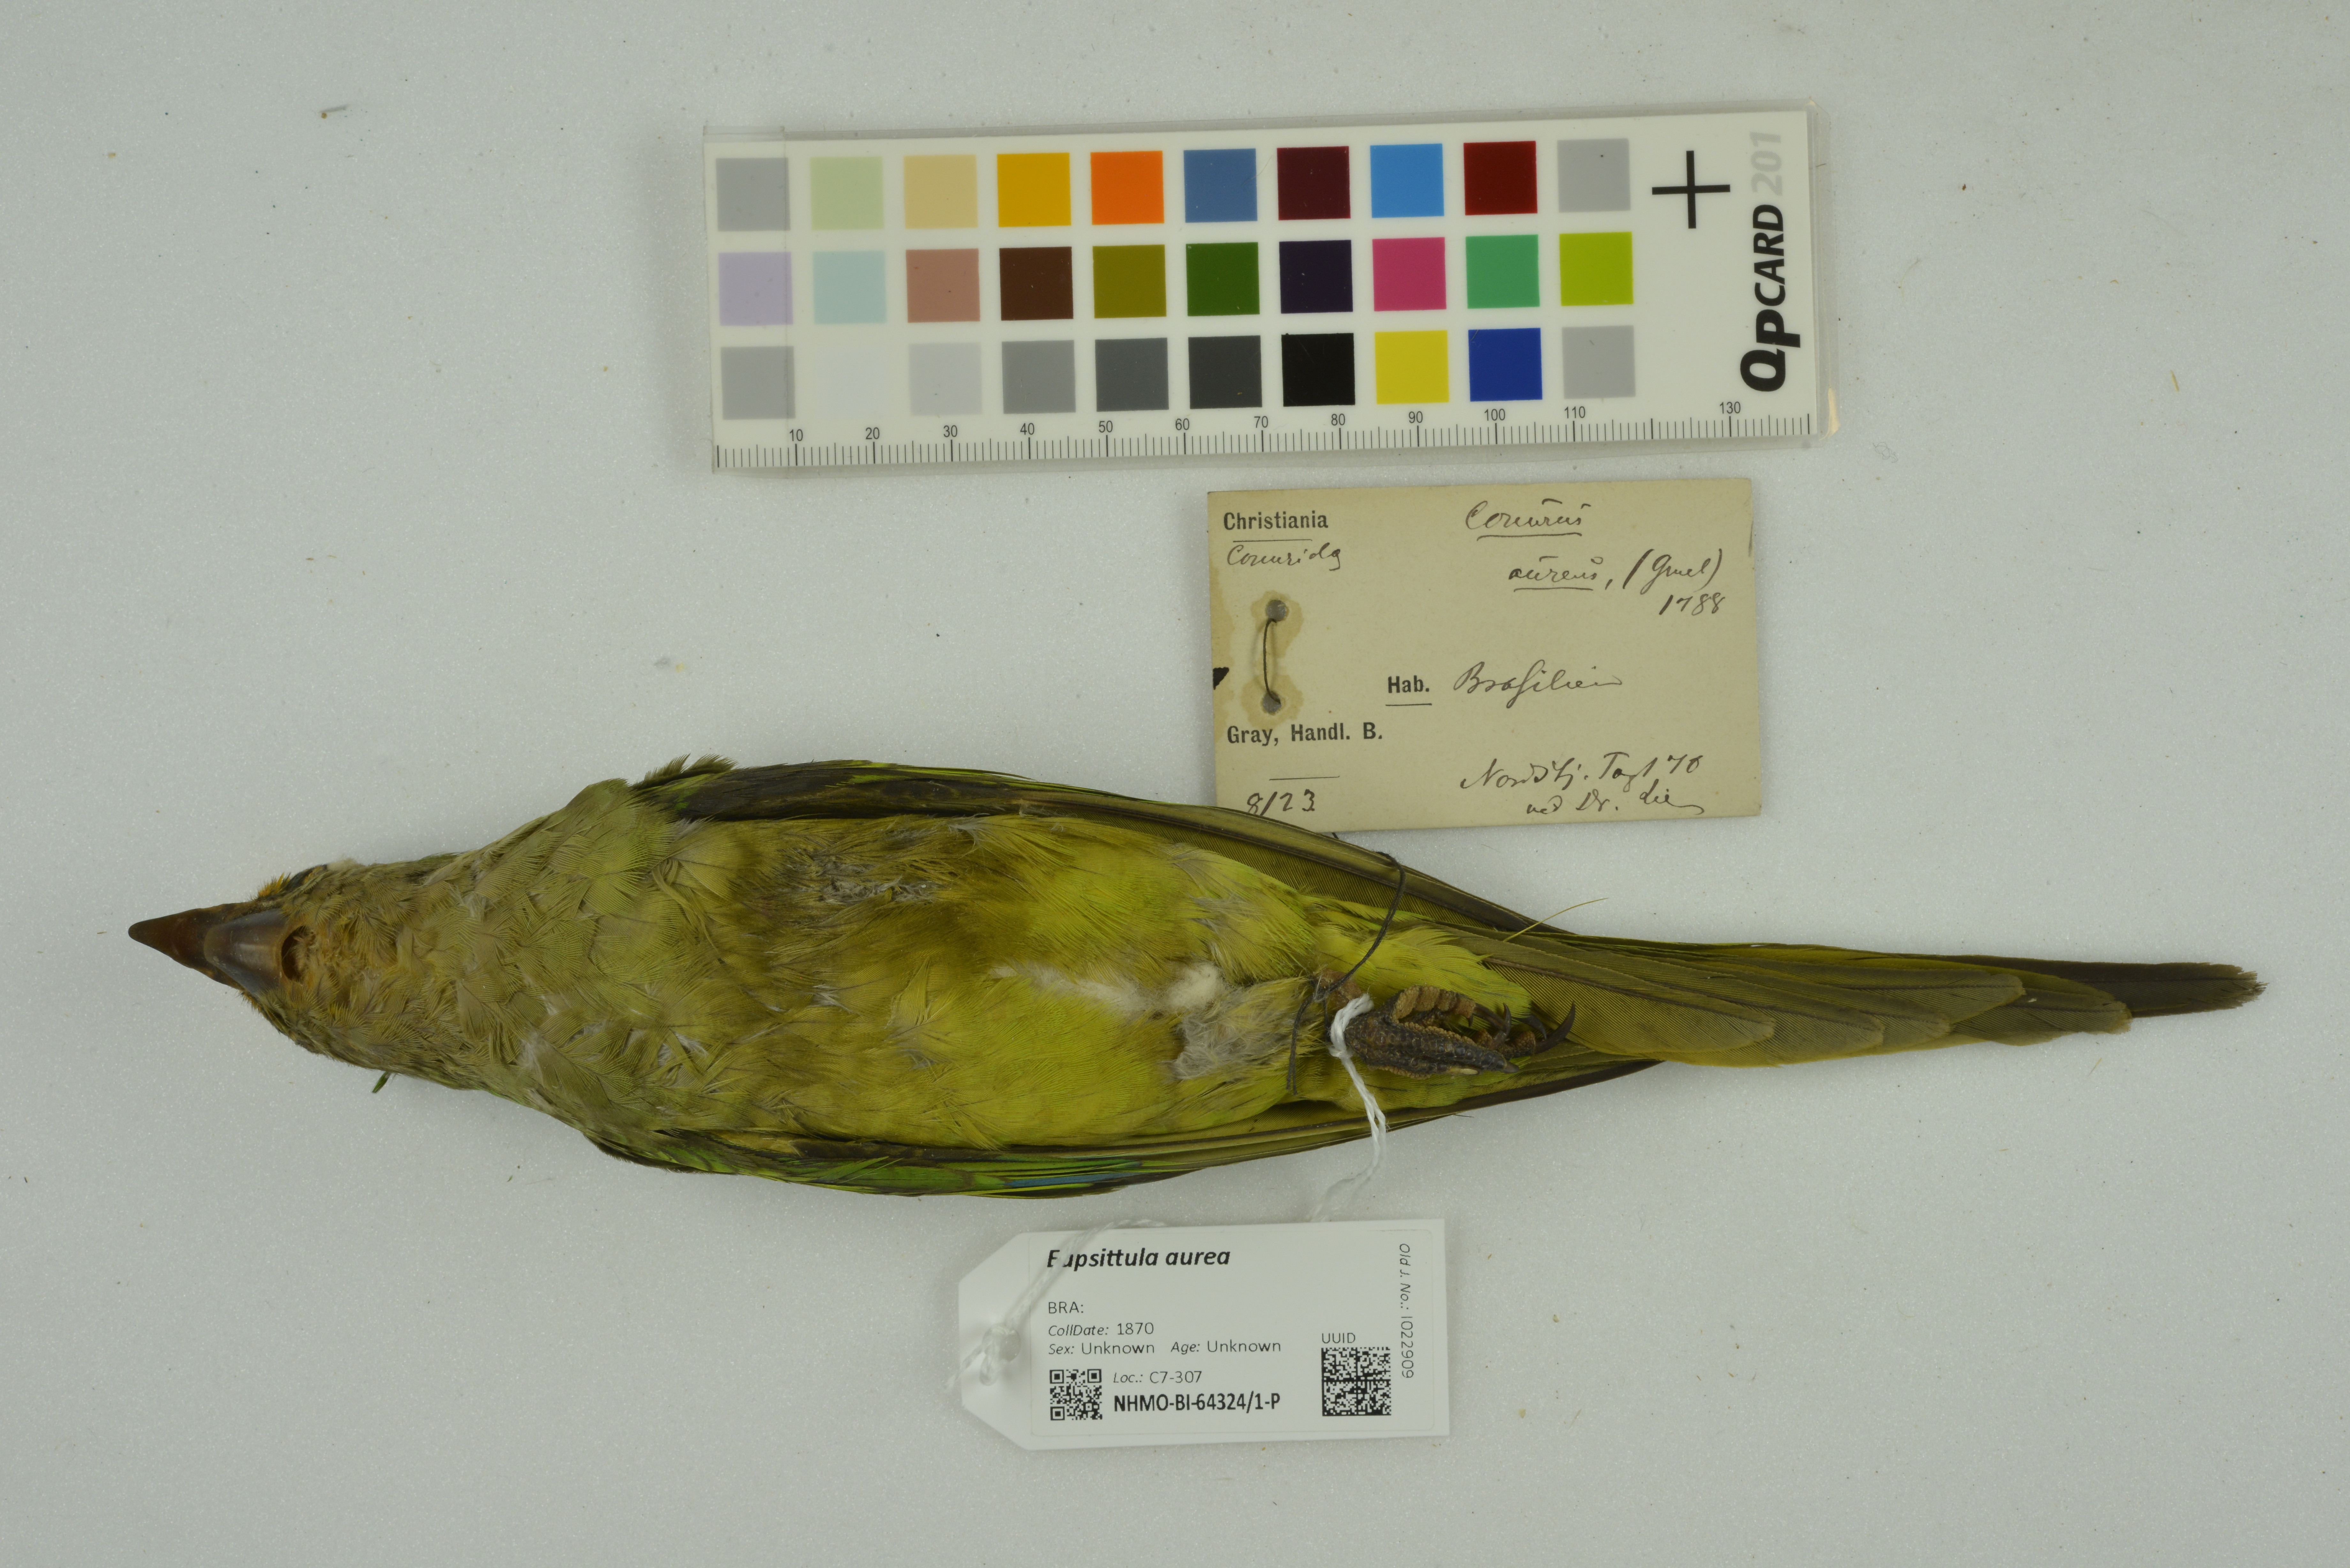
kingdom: Animalia
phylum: Chordata
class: Aves
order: Psittaciformes
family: Psittacidae
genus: Aratinga
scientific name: Aratinga aurea
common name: Peach-fronted parakeet
